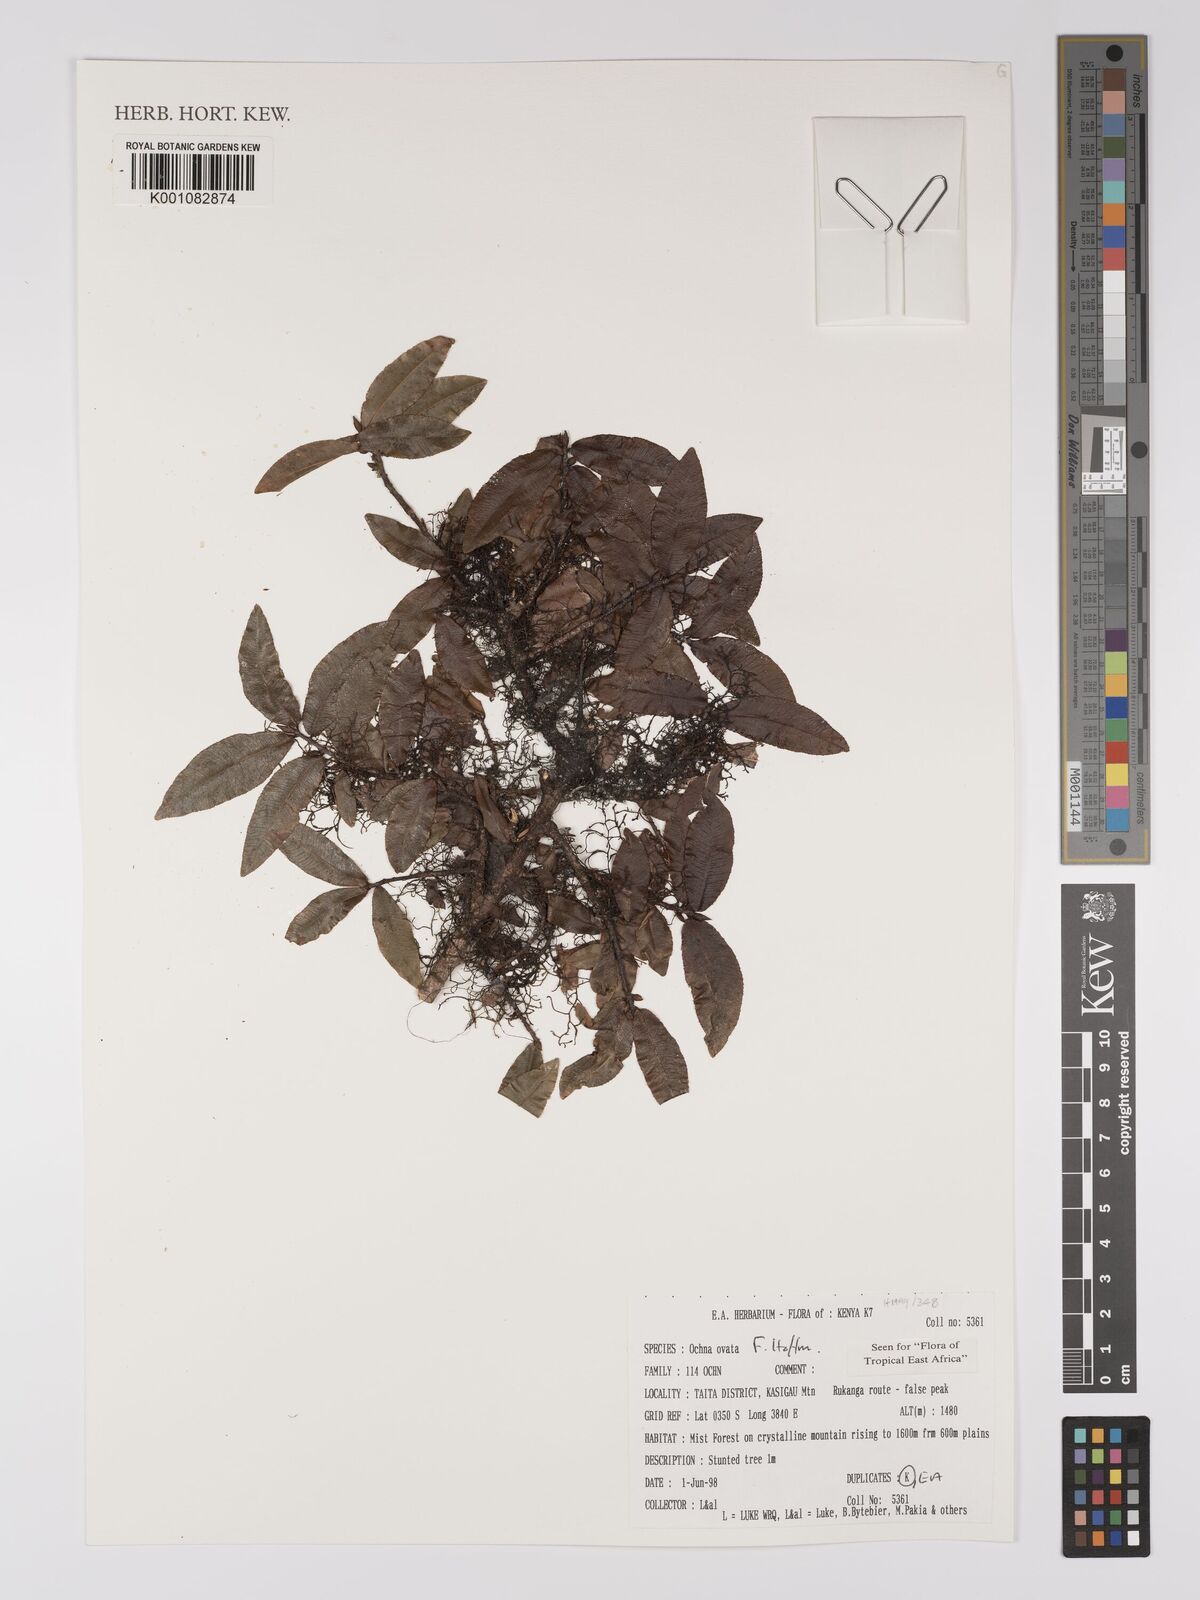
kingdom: Plantae
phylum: Tracheophyta
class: Magnoliopsida
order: Malpighiales
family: Ochnaceae
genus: Ochna
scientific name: Ochna ovata
